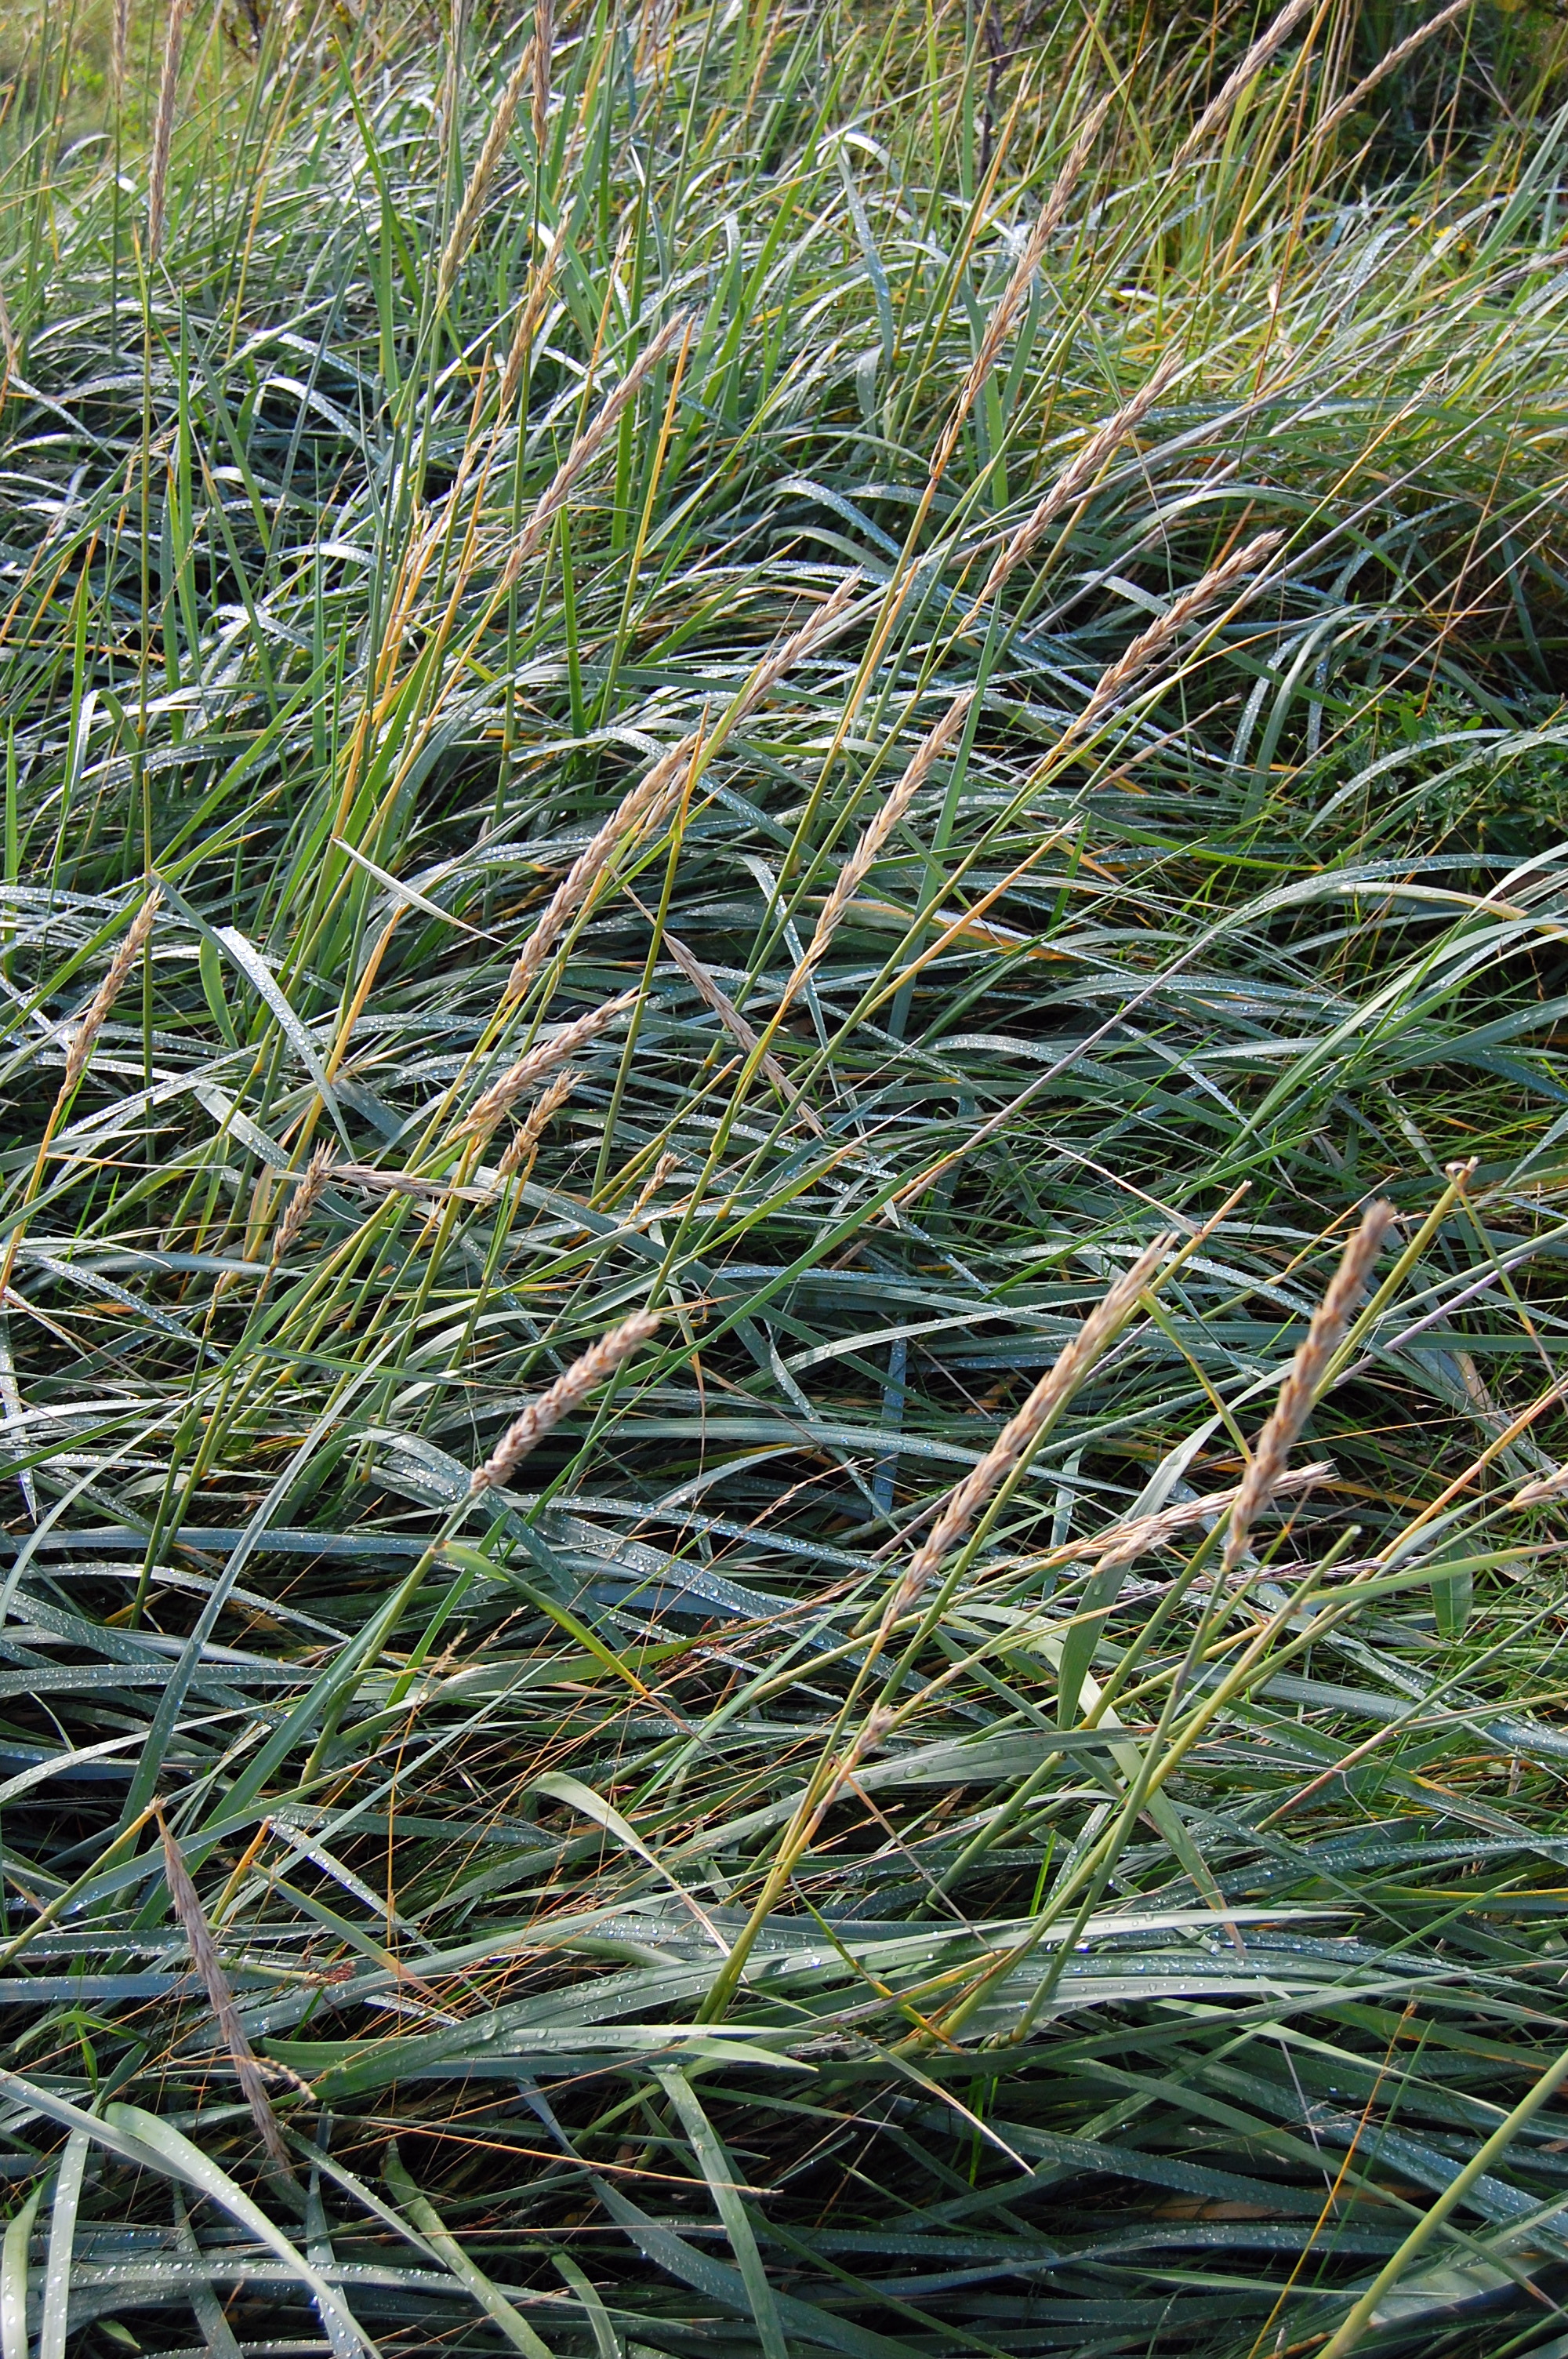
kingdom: Plantae
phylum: Tracheophyta
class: Liliopsida
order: Poales
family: Poaceae
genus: Leymus
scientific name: Leymus arenarius
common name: Lyme-grass
